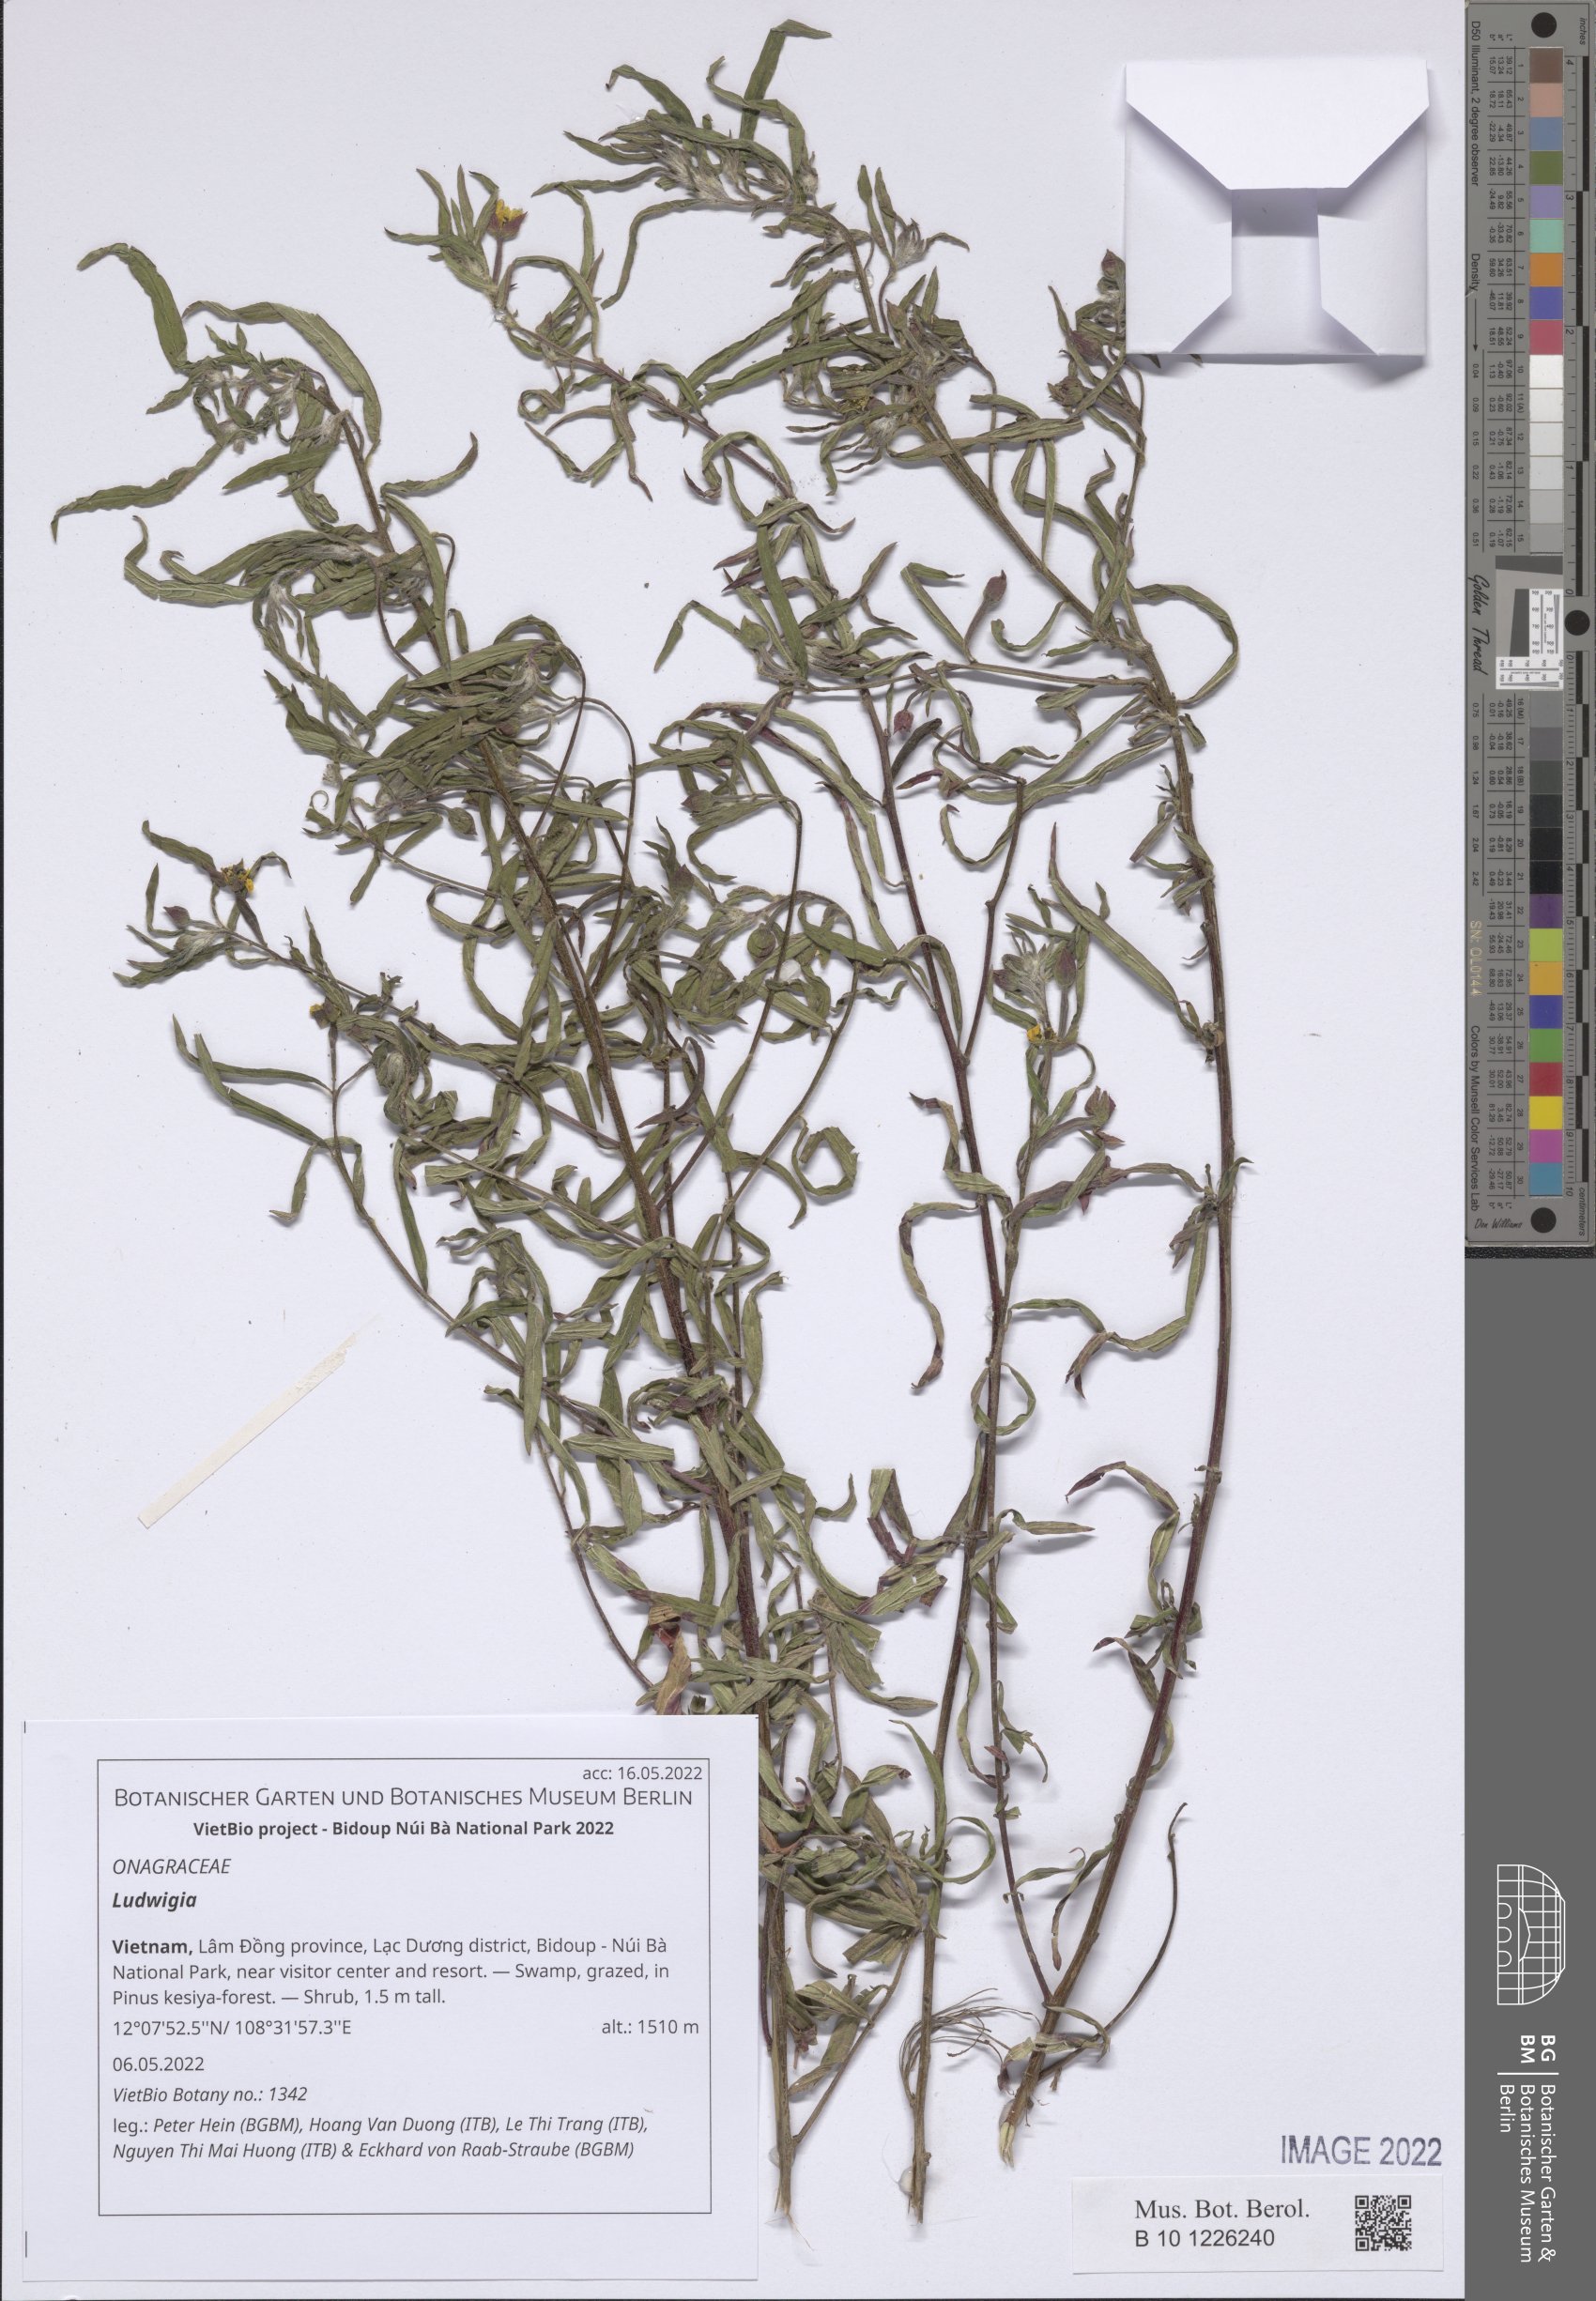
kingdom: Plantae
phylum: Tracheophyta
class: Magnoliopsida
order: Myrtales
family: Onagraceae
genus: Ludwigia
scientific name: Ludwigia
